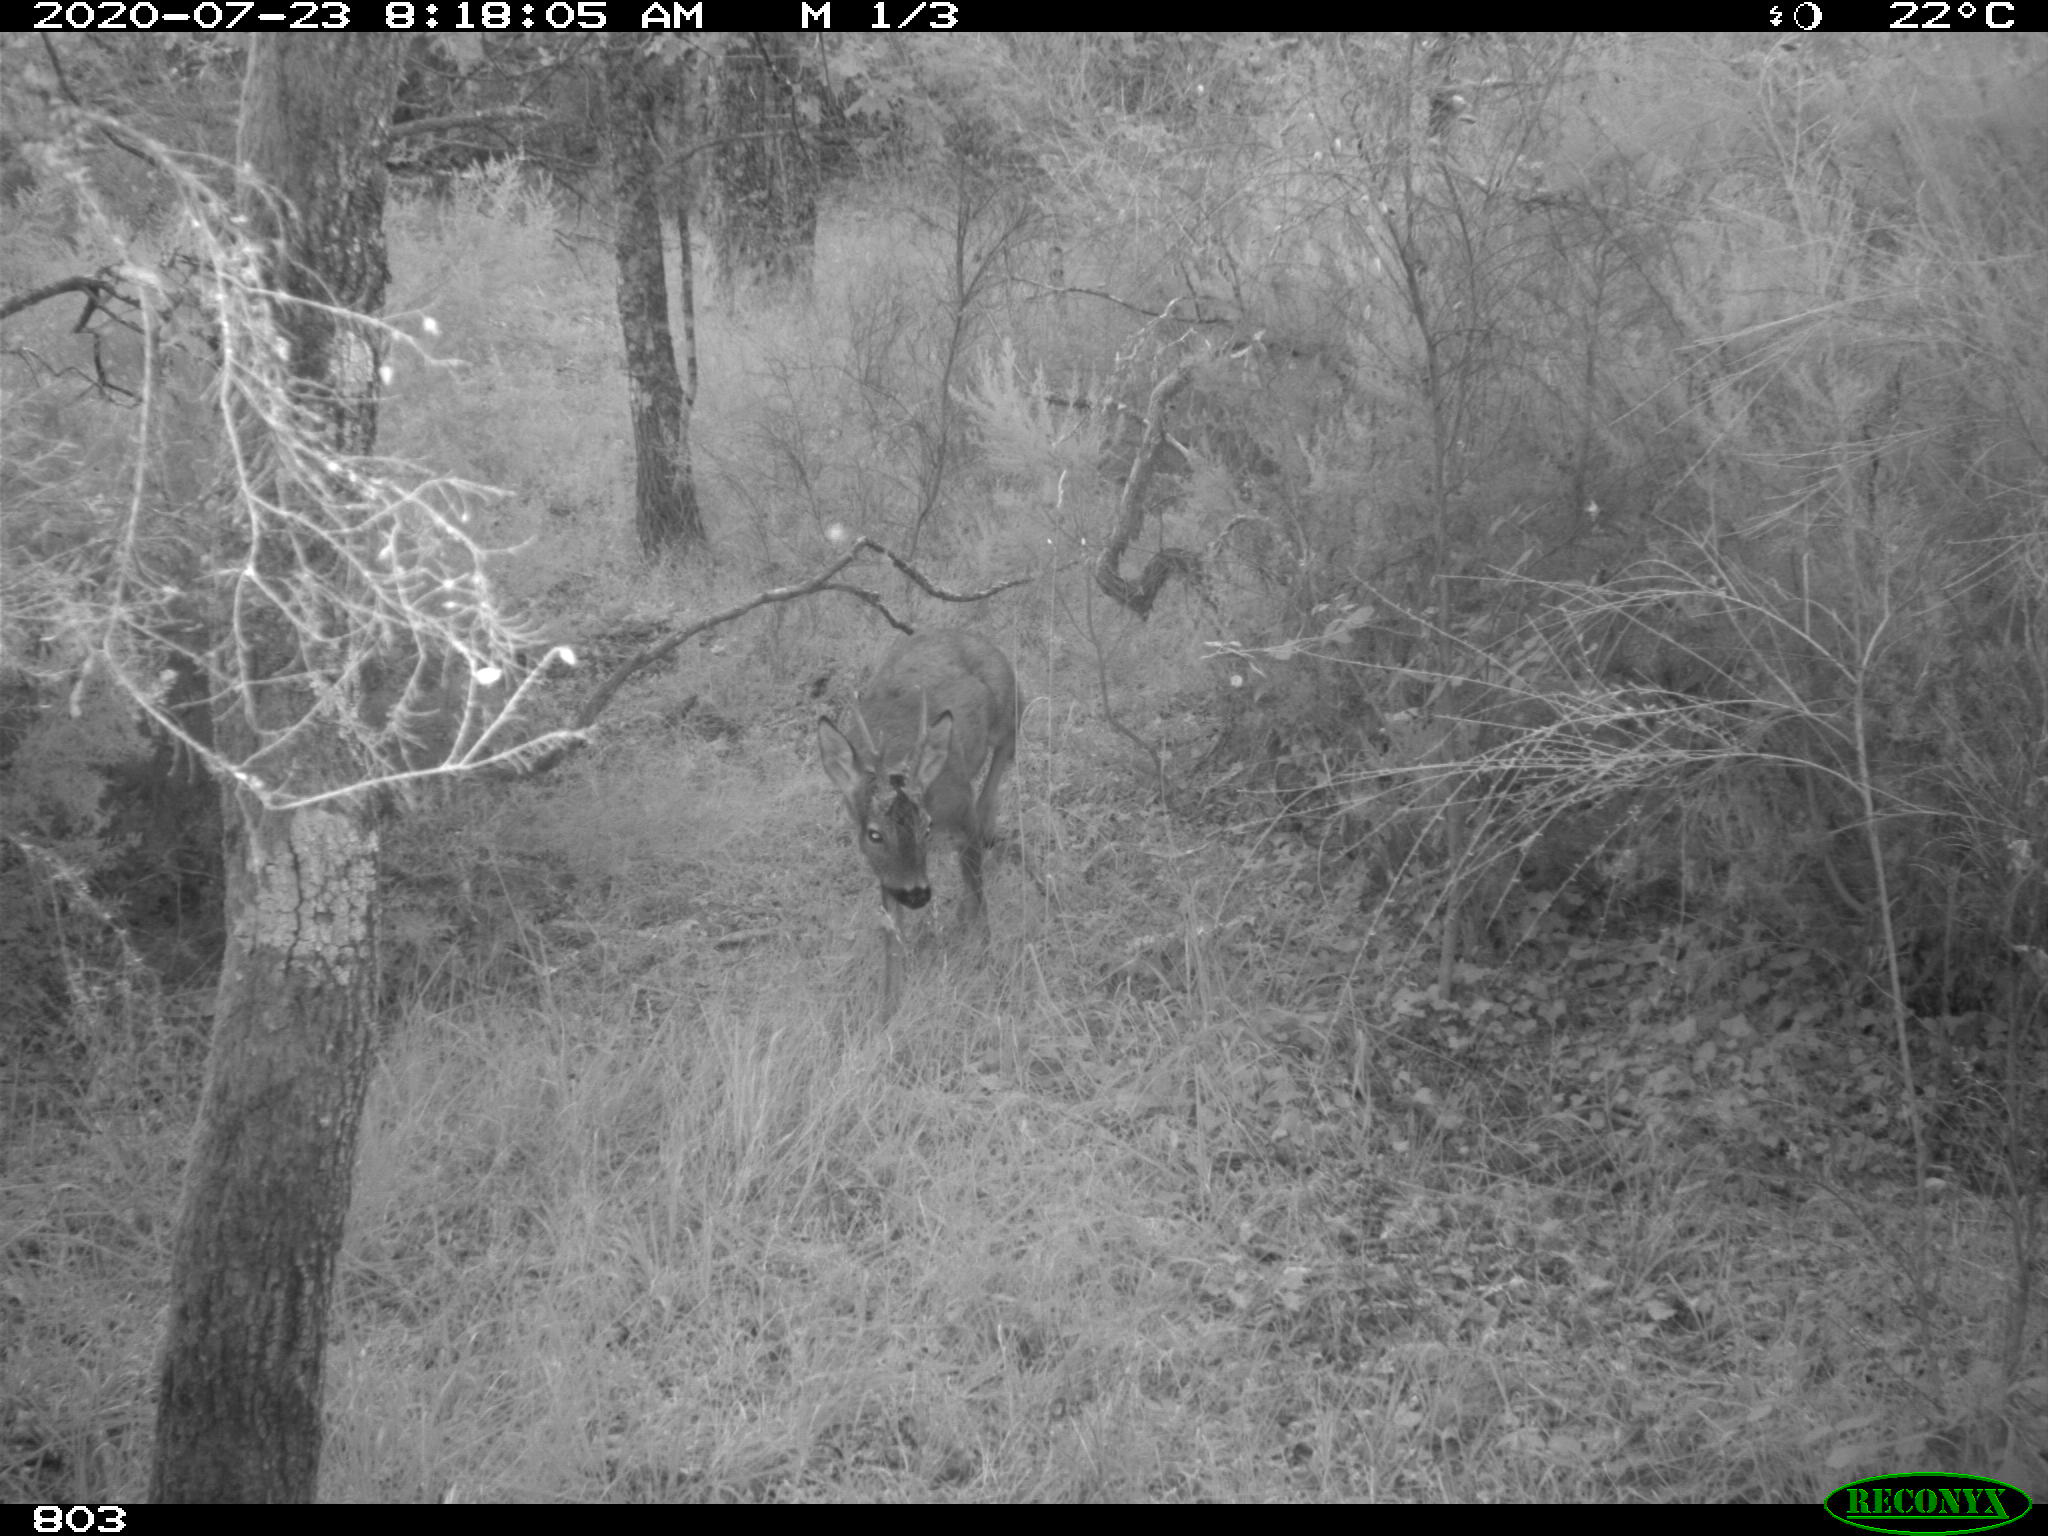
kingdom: Animalia
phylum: Chordata
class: Mammalia
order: Artiodactyla
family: Cervidae
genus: Capreolus
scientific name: Capreolus capreolus
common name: Western roe deer
